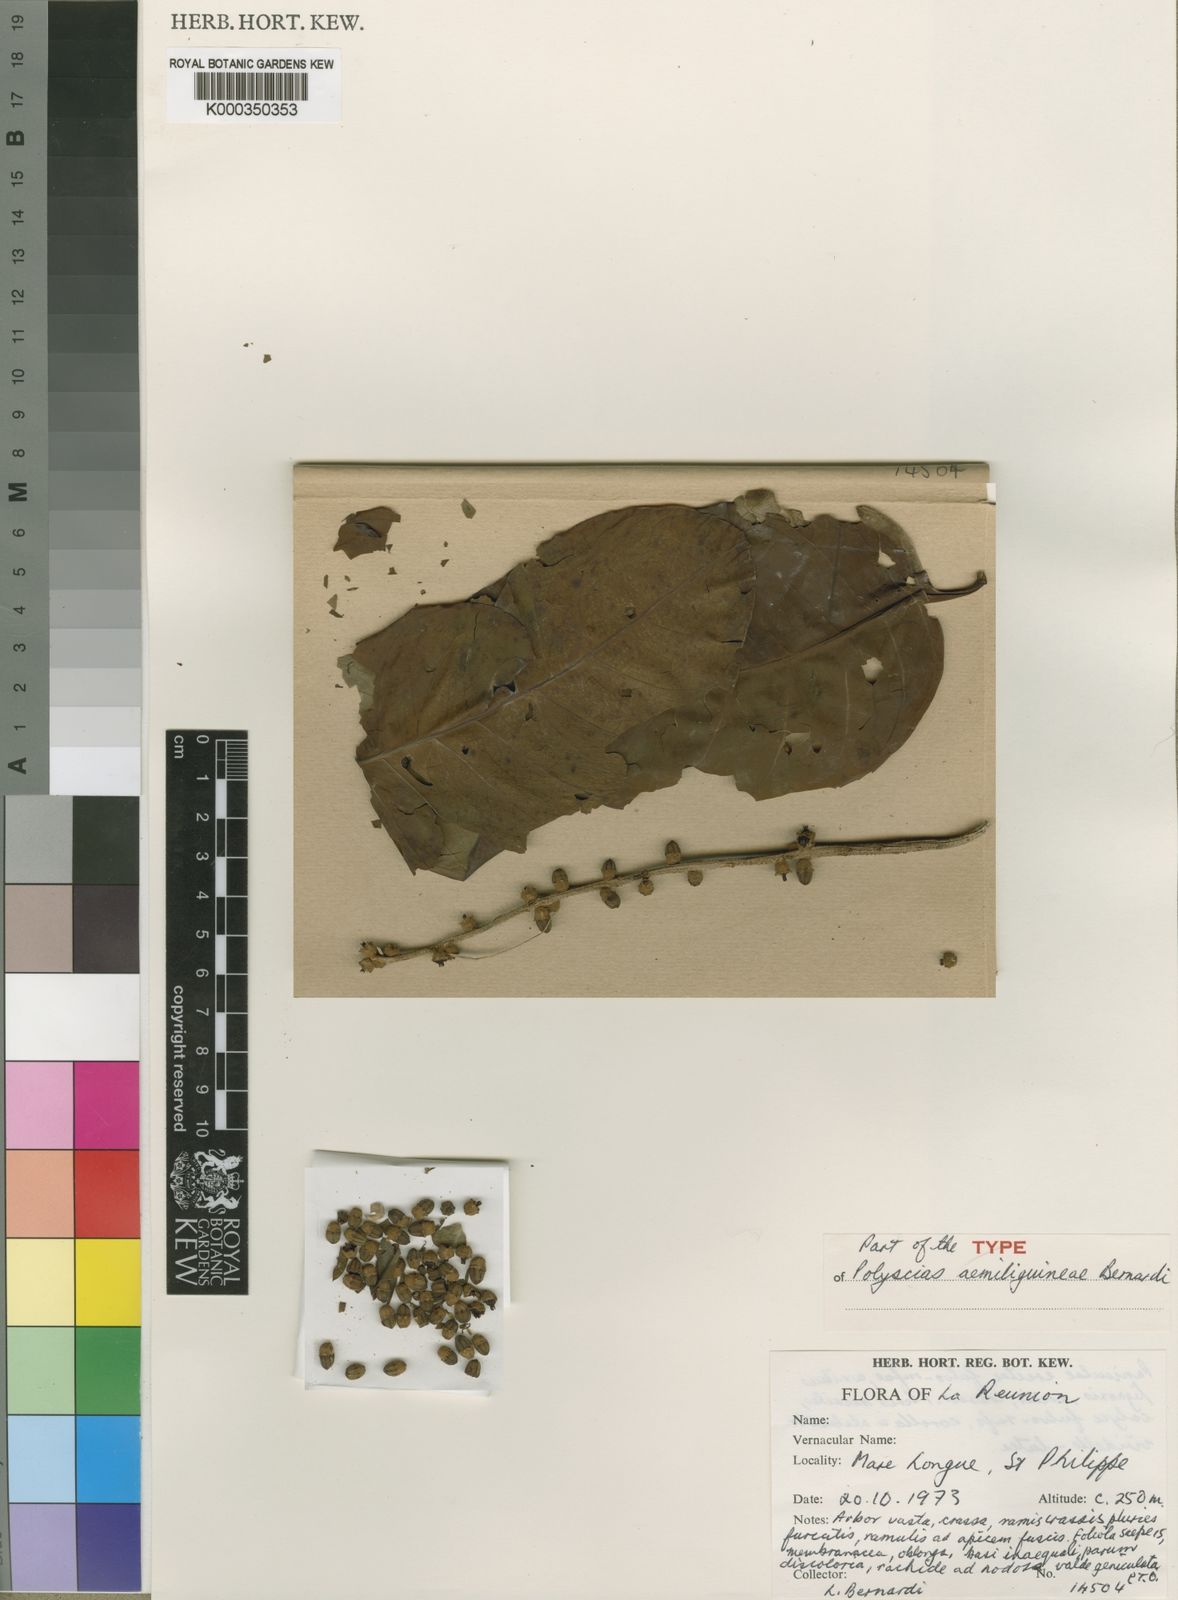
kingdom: Plantae
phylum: Tracheophyta
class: Magnoliopsida
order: Apiales
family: Araliaceae
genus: Polyscias
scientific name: Polyscias aemiliguineae
